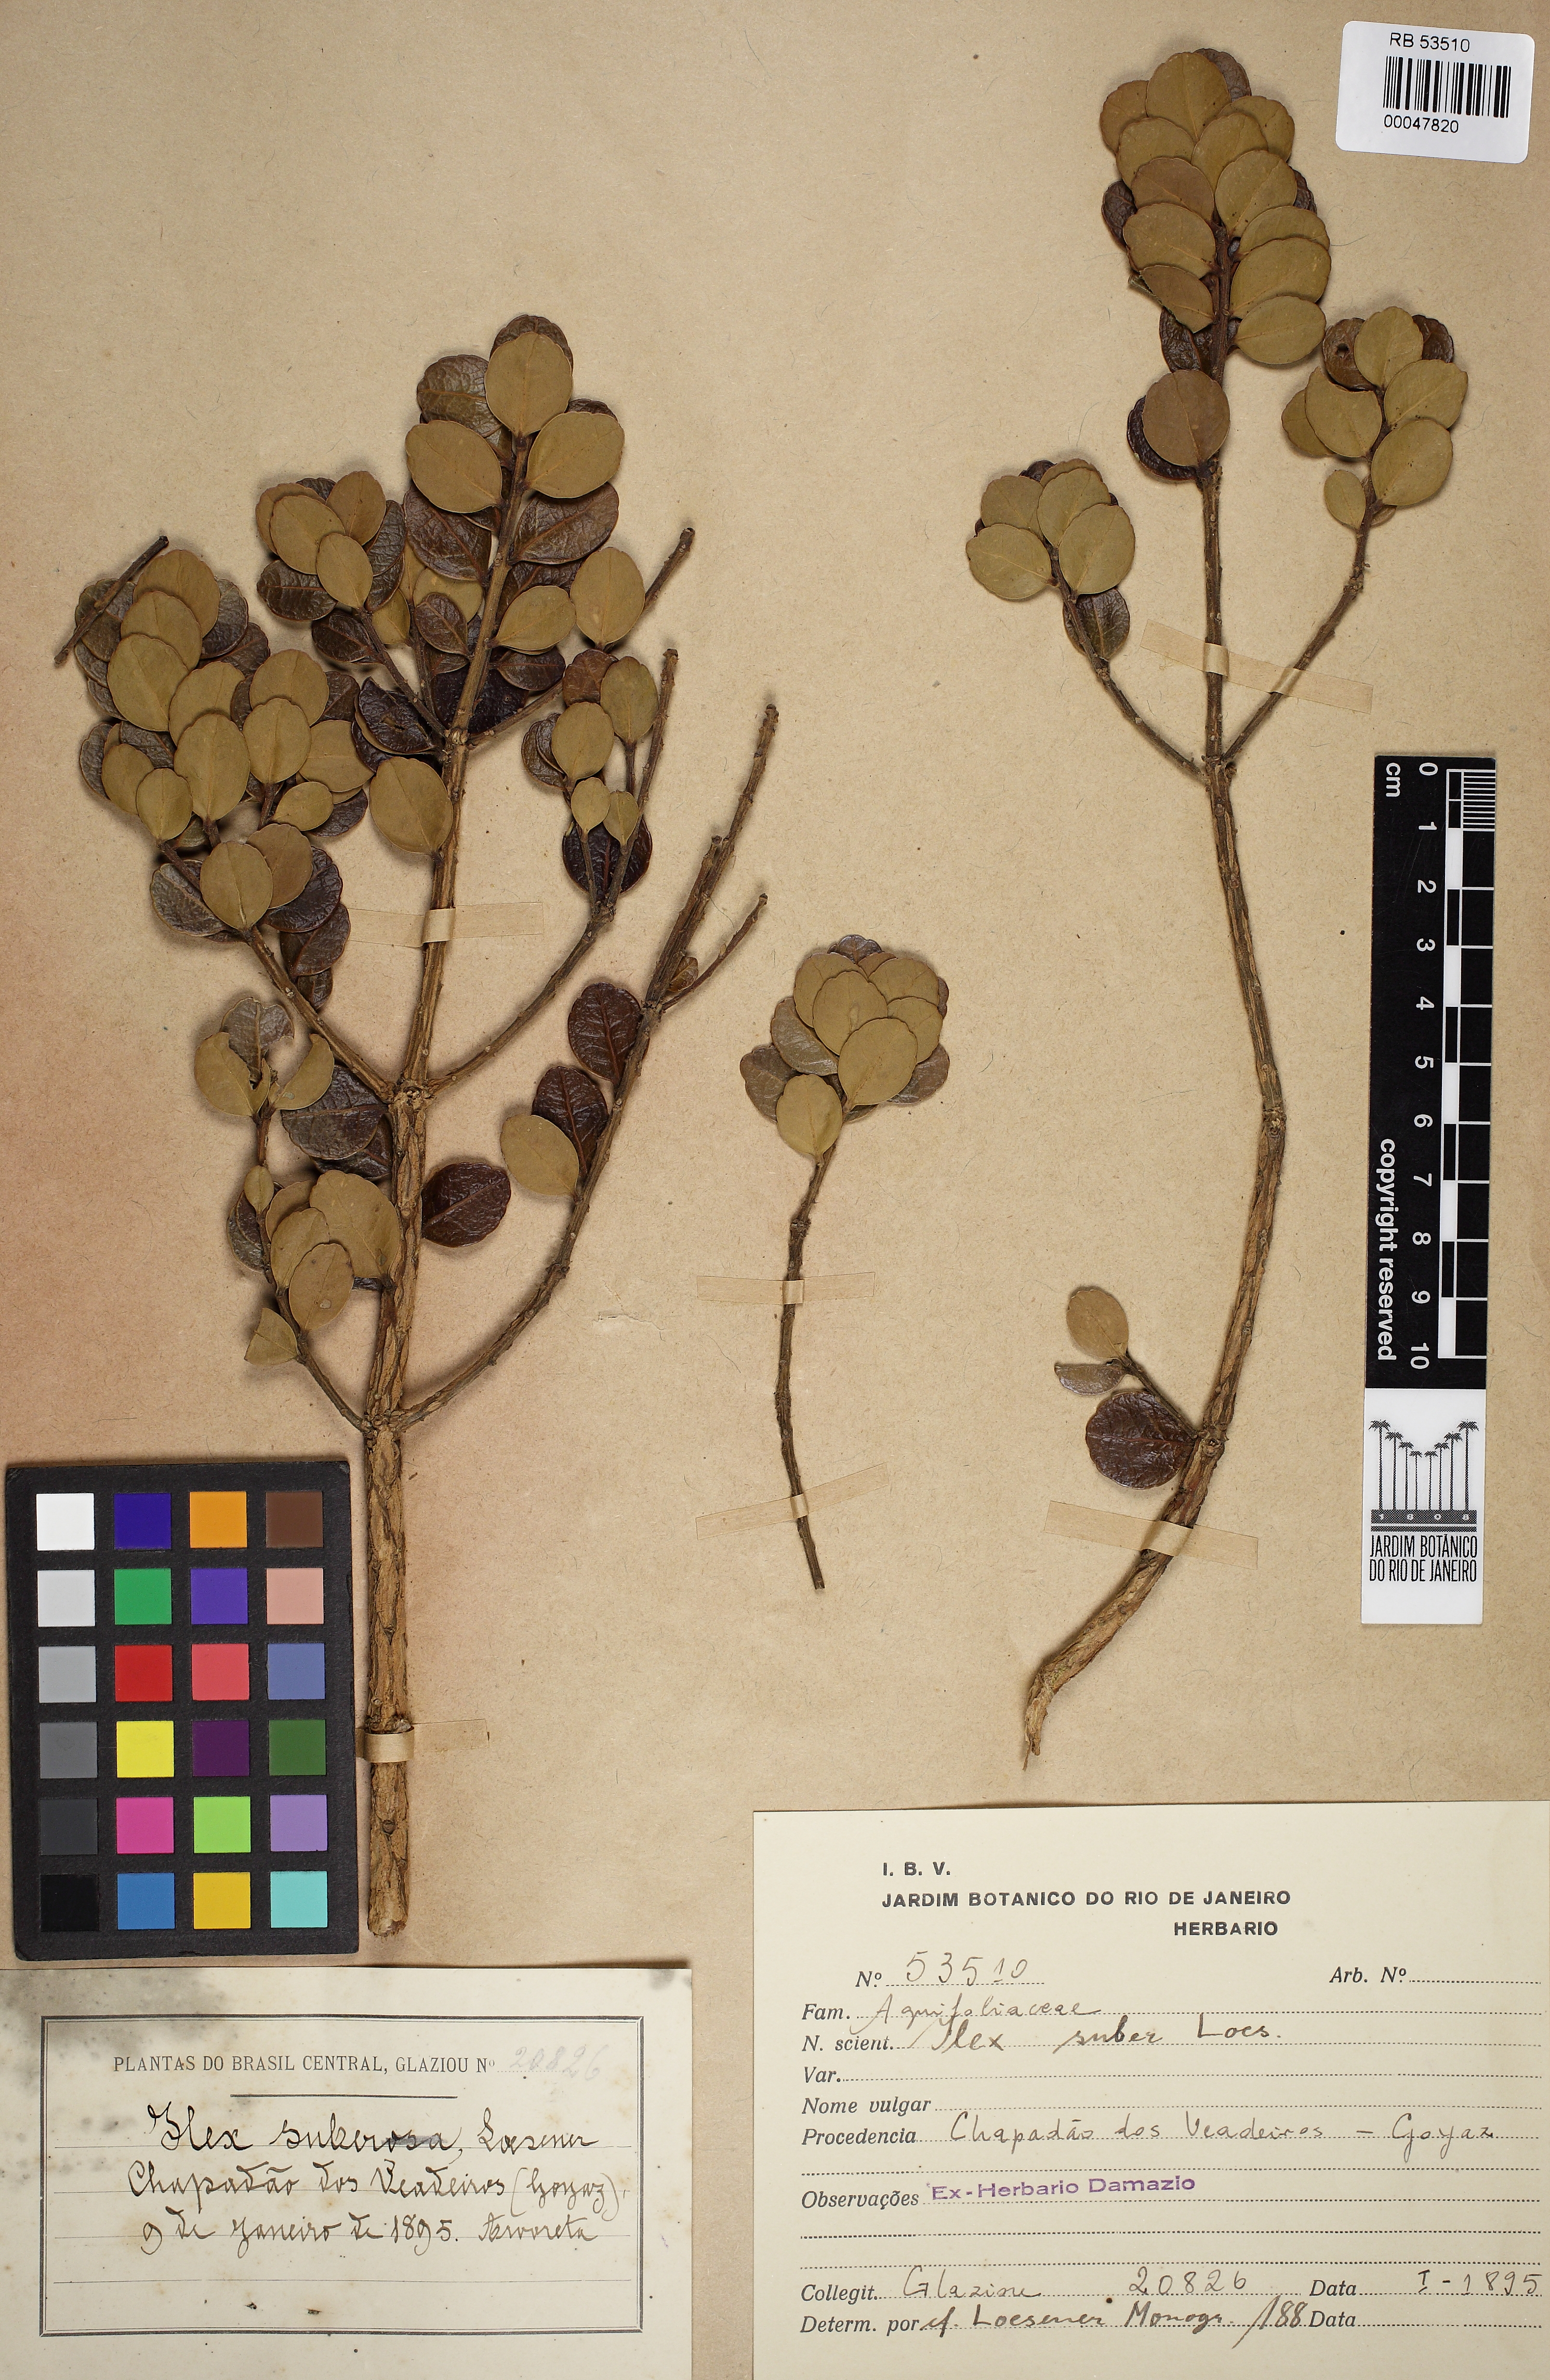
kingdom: Plantae
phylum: Tracheophyta
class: Magnoliopsida
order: Aquifoliales
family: Aquifoliaceae
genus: Ilex
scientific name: Ilex suber
